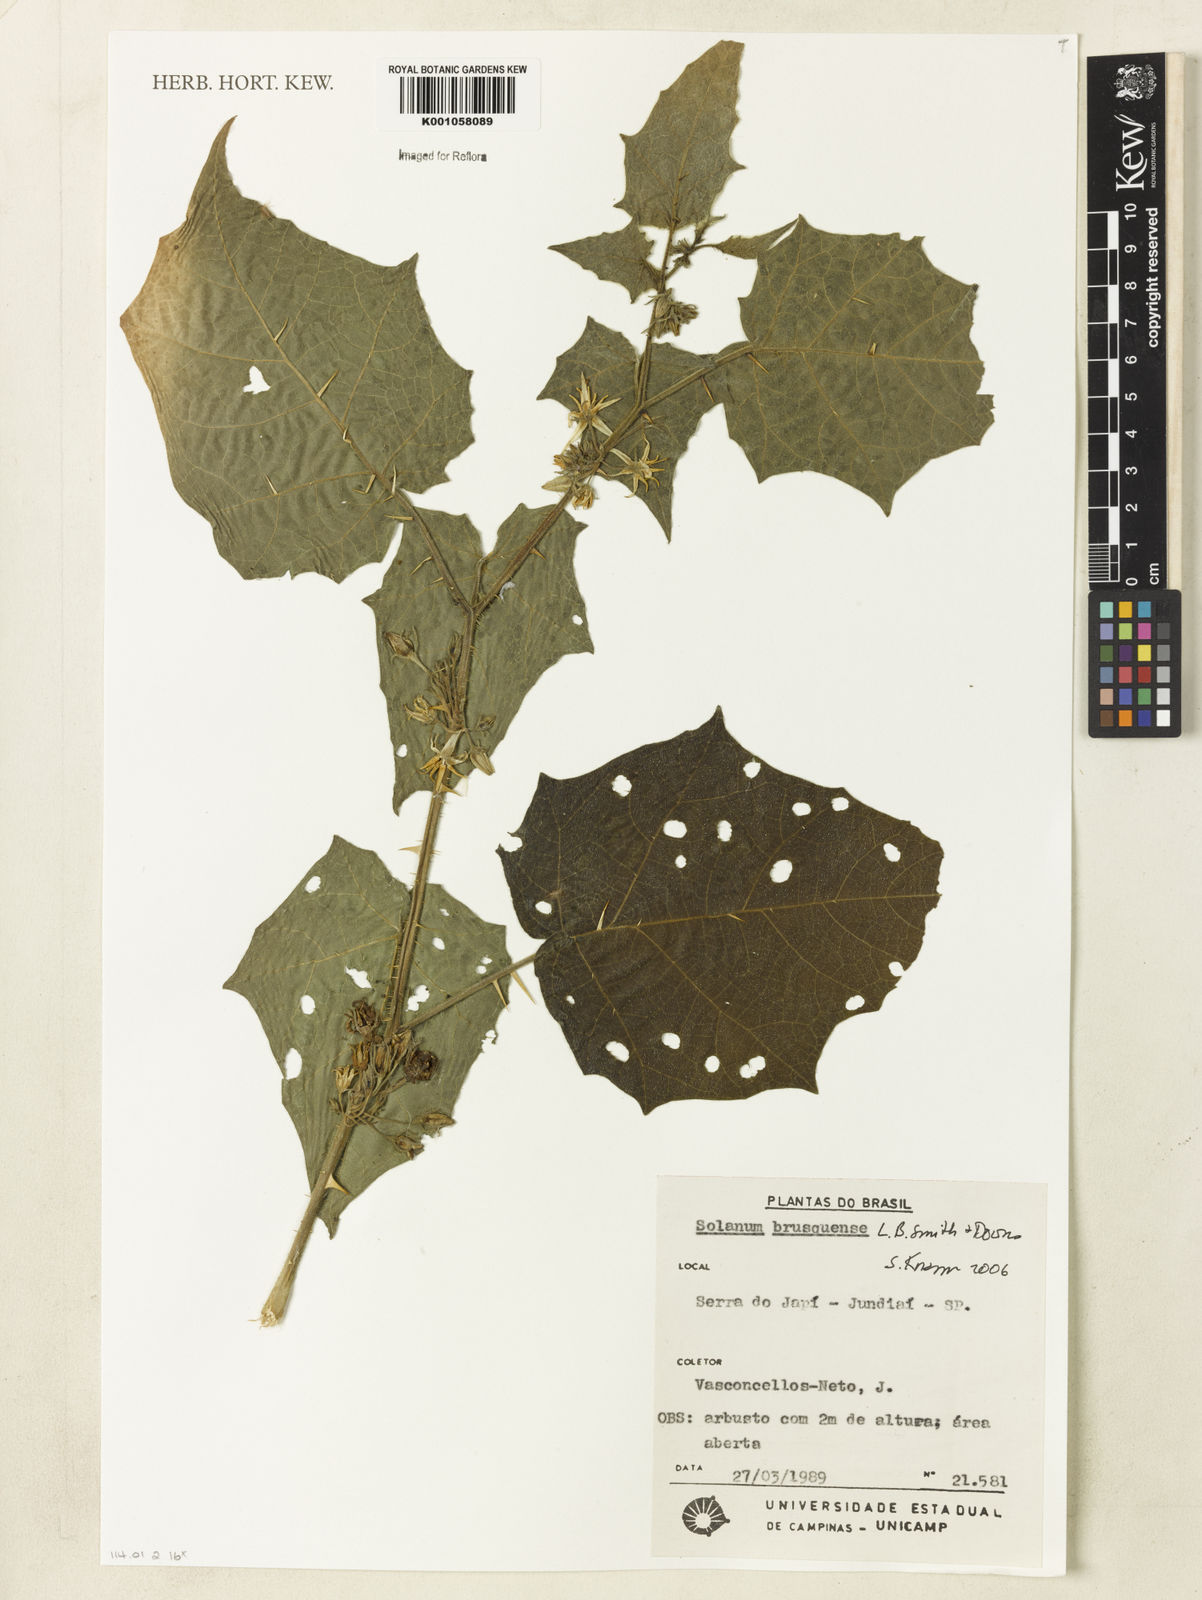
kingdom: Plantae
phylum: Tracheophyta
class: Magnoliopsida
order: Solanales
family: Solanaceae
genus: Solanum
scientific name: Solanum wacketii
